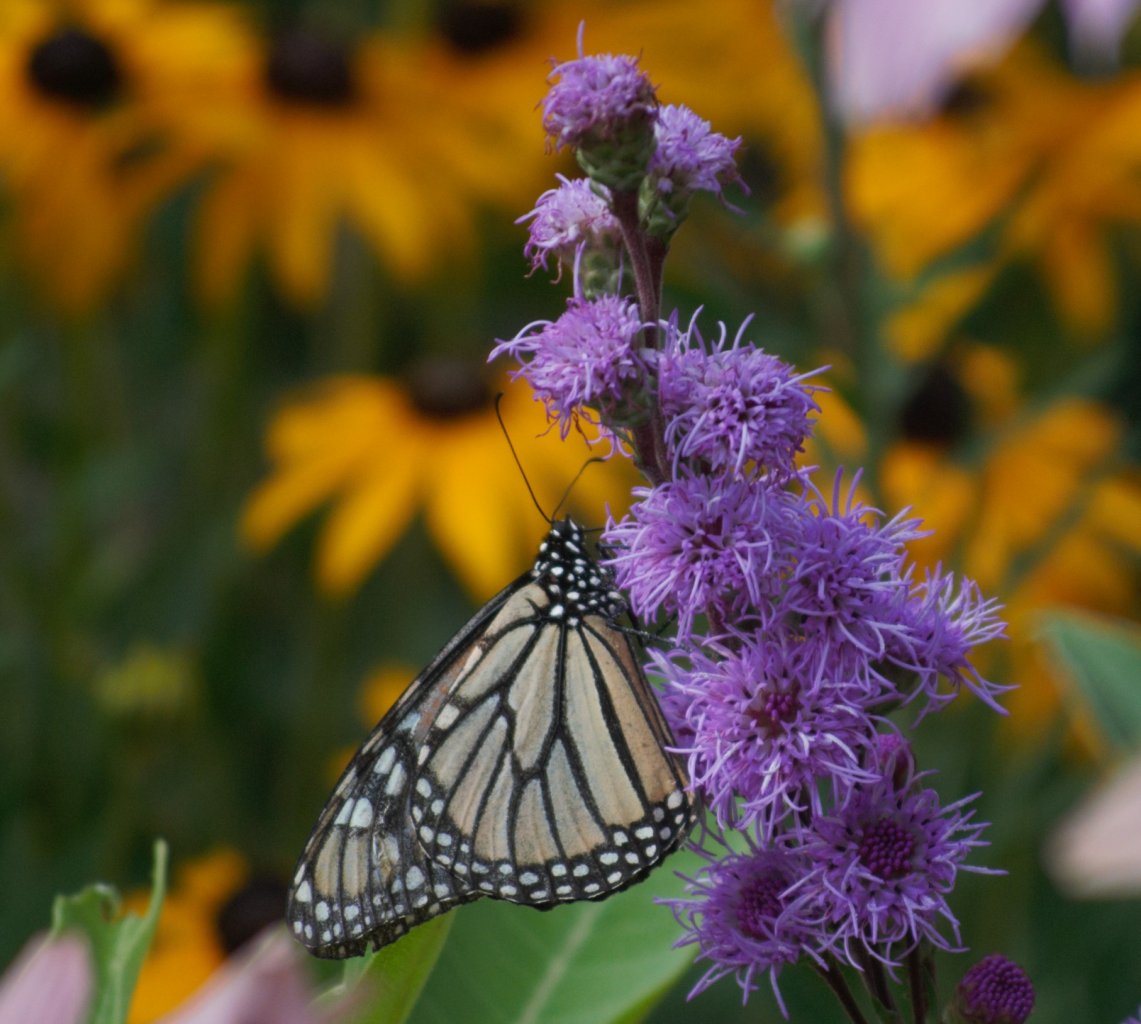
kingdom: Animalia
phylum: Arthropoda
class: Insecta
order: Lepidoptera
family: Nymphalidae
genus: Danaus
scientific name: Danaus plexippus
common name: Monarch
